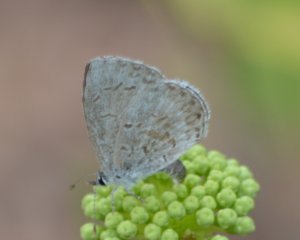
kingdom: Animalia
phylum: Arthropoda
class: Insecta
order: Lepidoptera
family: Lycaenidae
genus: Celastrina
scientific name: Celastrina lucia
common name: Northern Spring Azure
